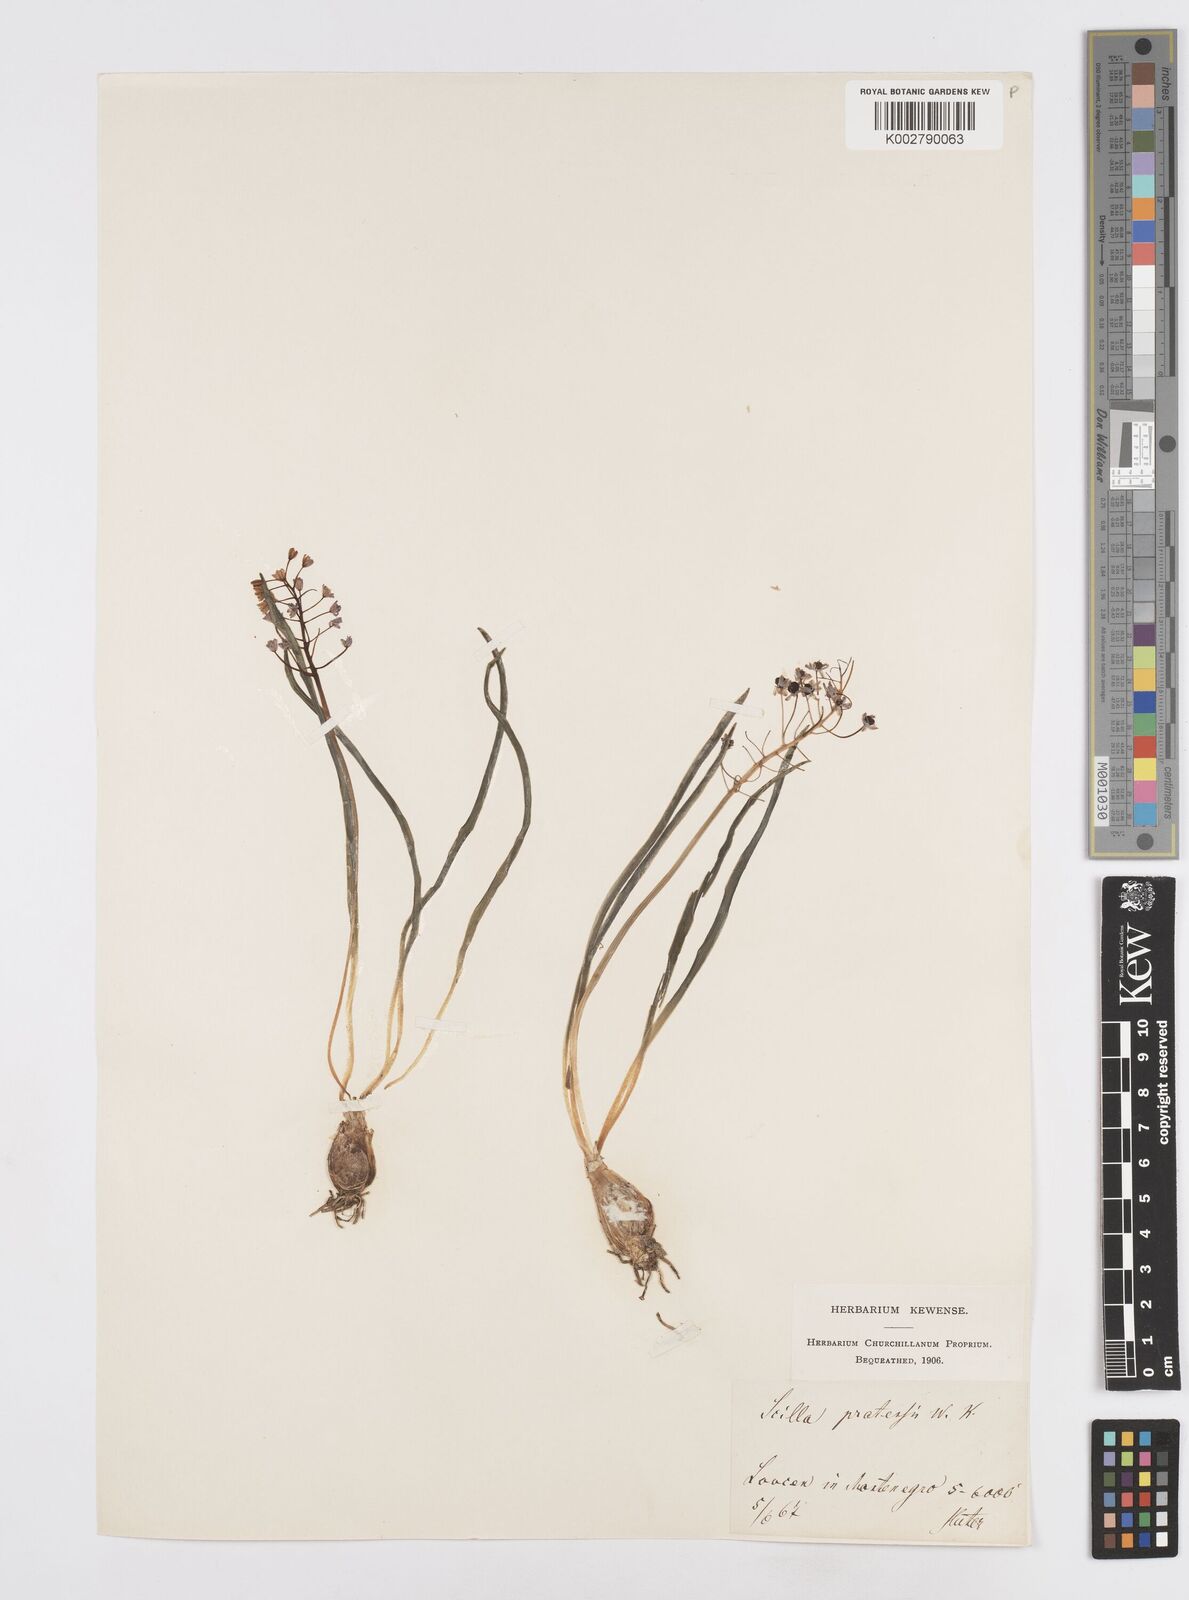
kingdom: Plantae
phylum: Tracheophyta
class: Liliopsida
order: Asparagales
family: Asparagaceae
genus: Scilla
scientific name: Scilla litardierei
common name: Amethyst meadow squill
